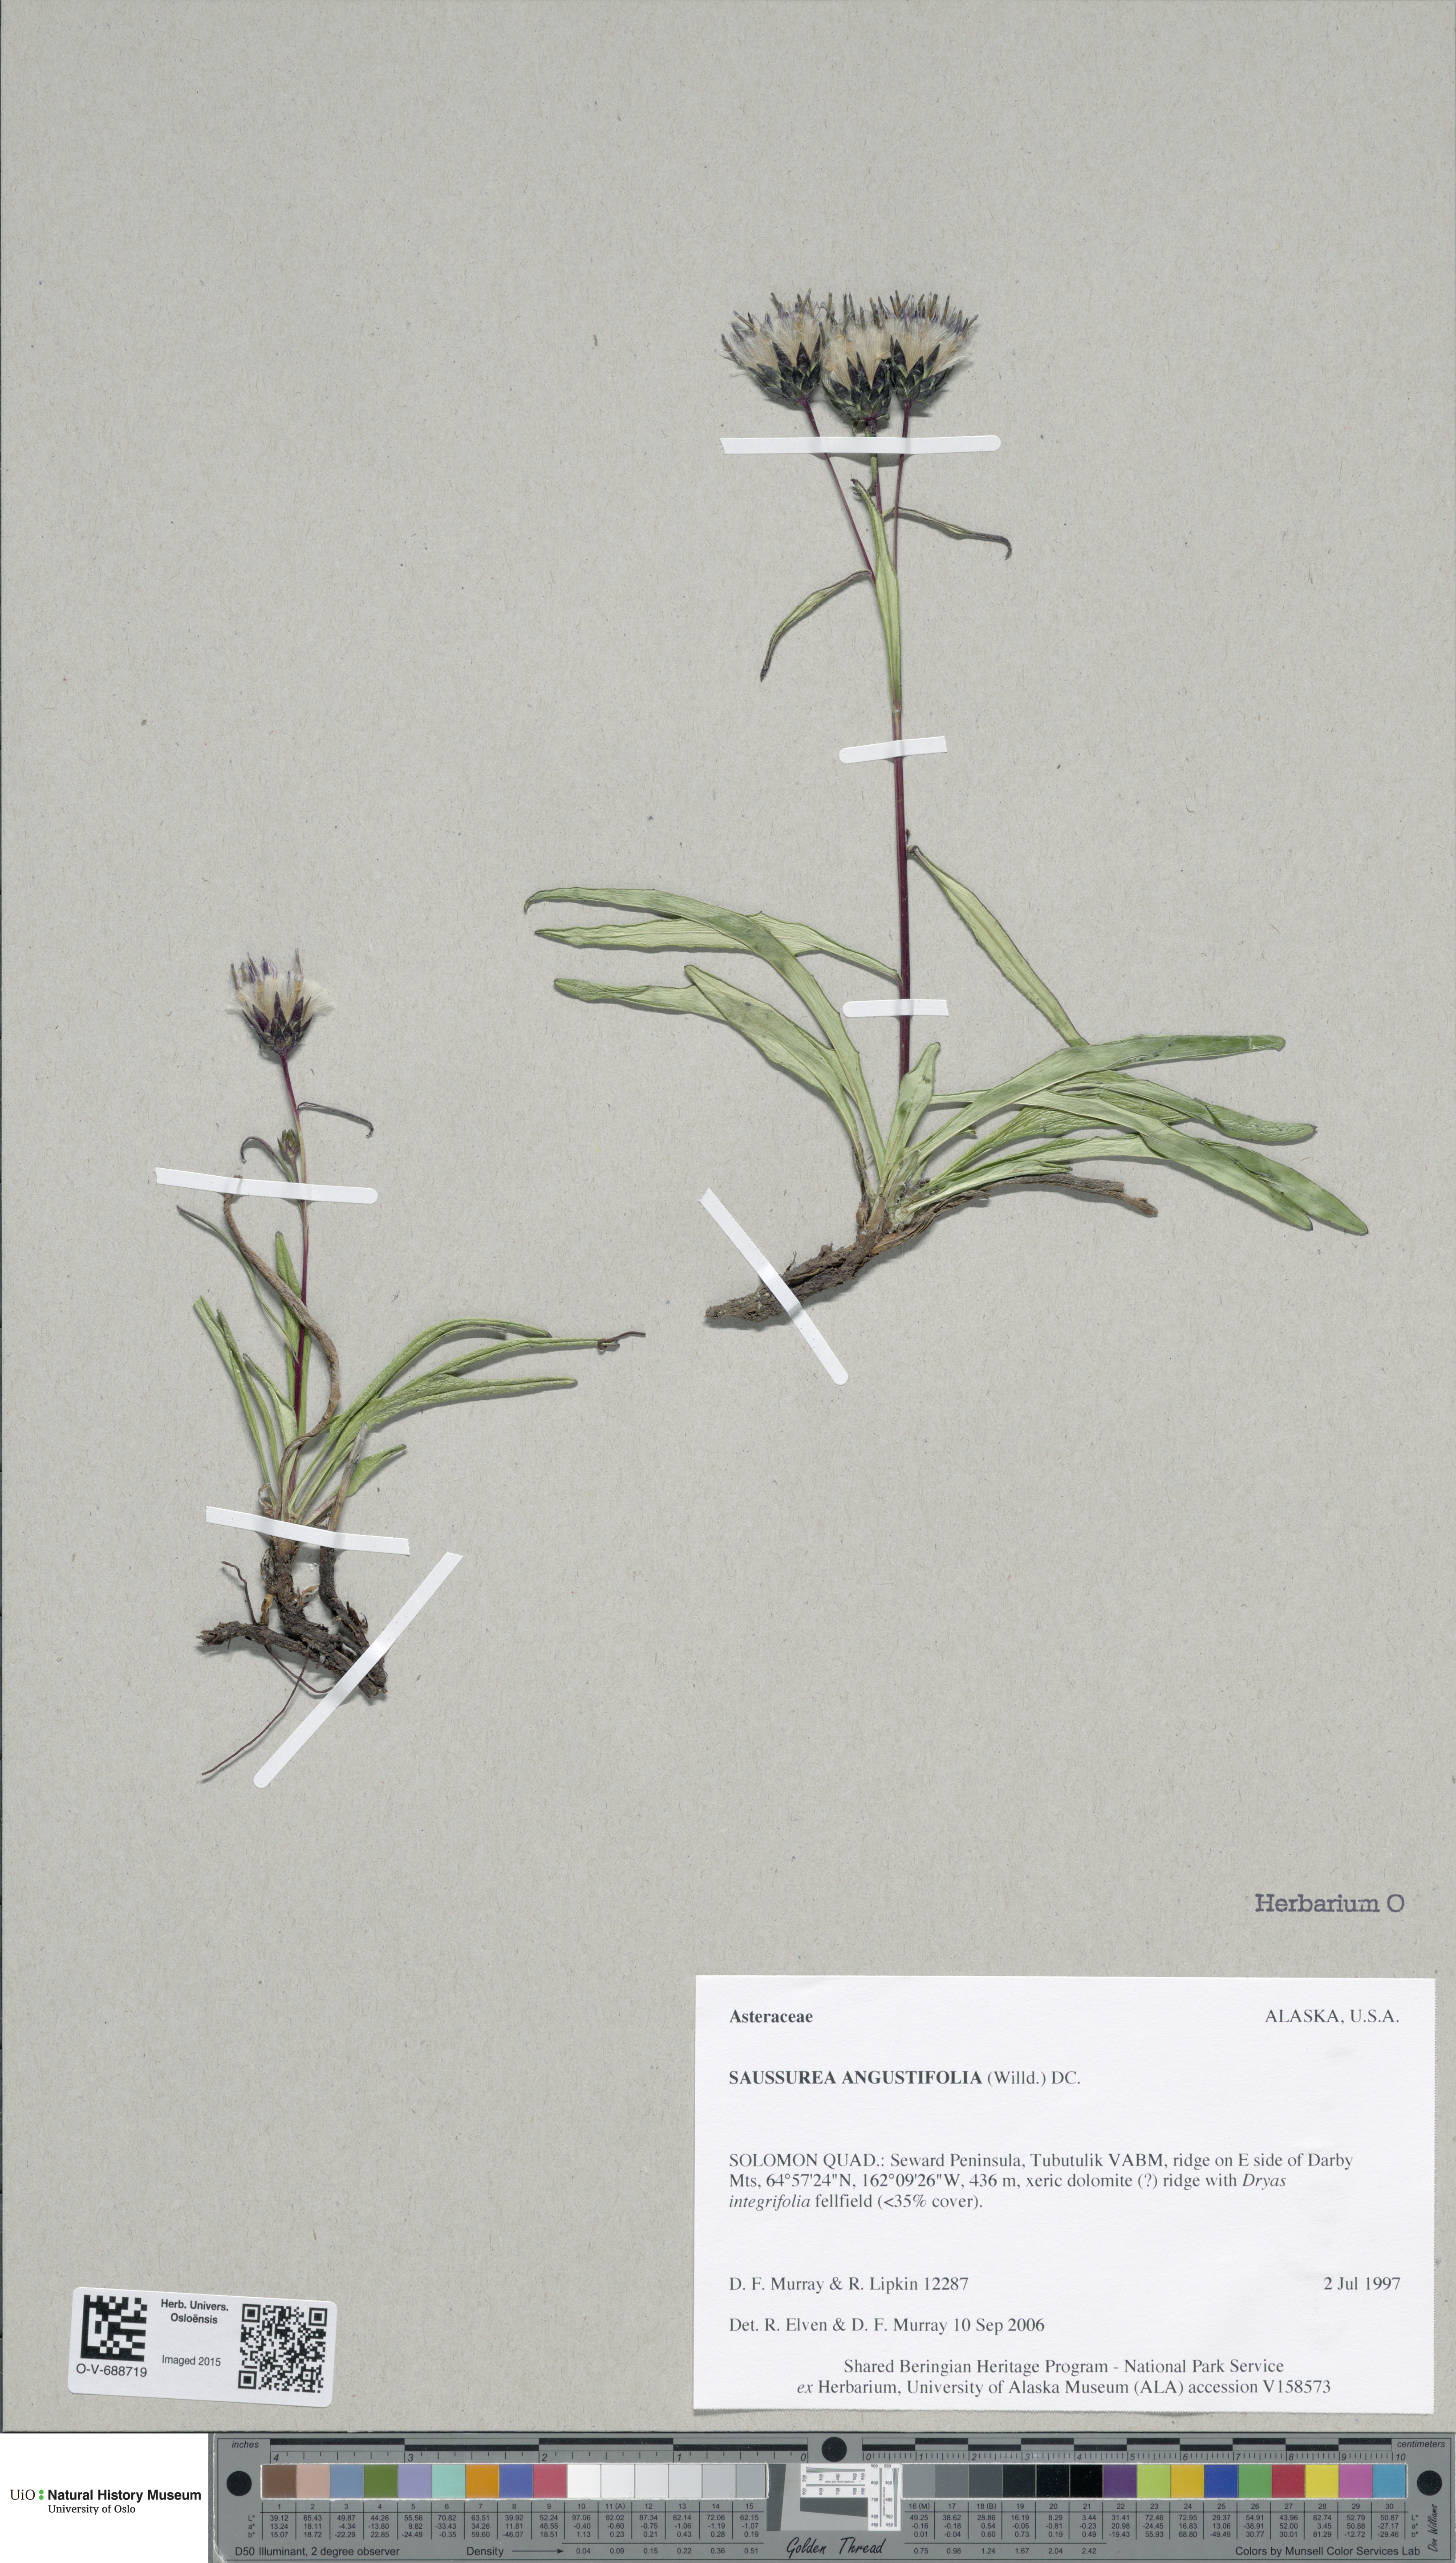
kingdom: Plantae
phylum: Tracheophyta
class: Magnoliopsida
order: Asterales
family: Asteraceae
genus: Saussurea
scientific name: Saussurea angustifolia
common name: Common saussurea
